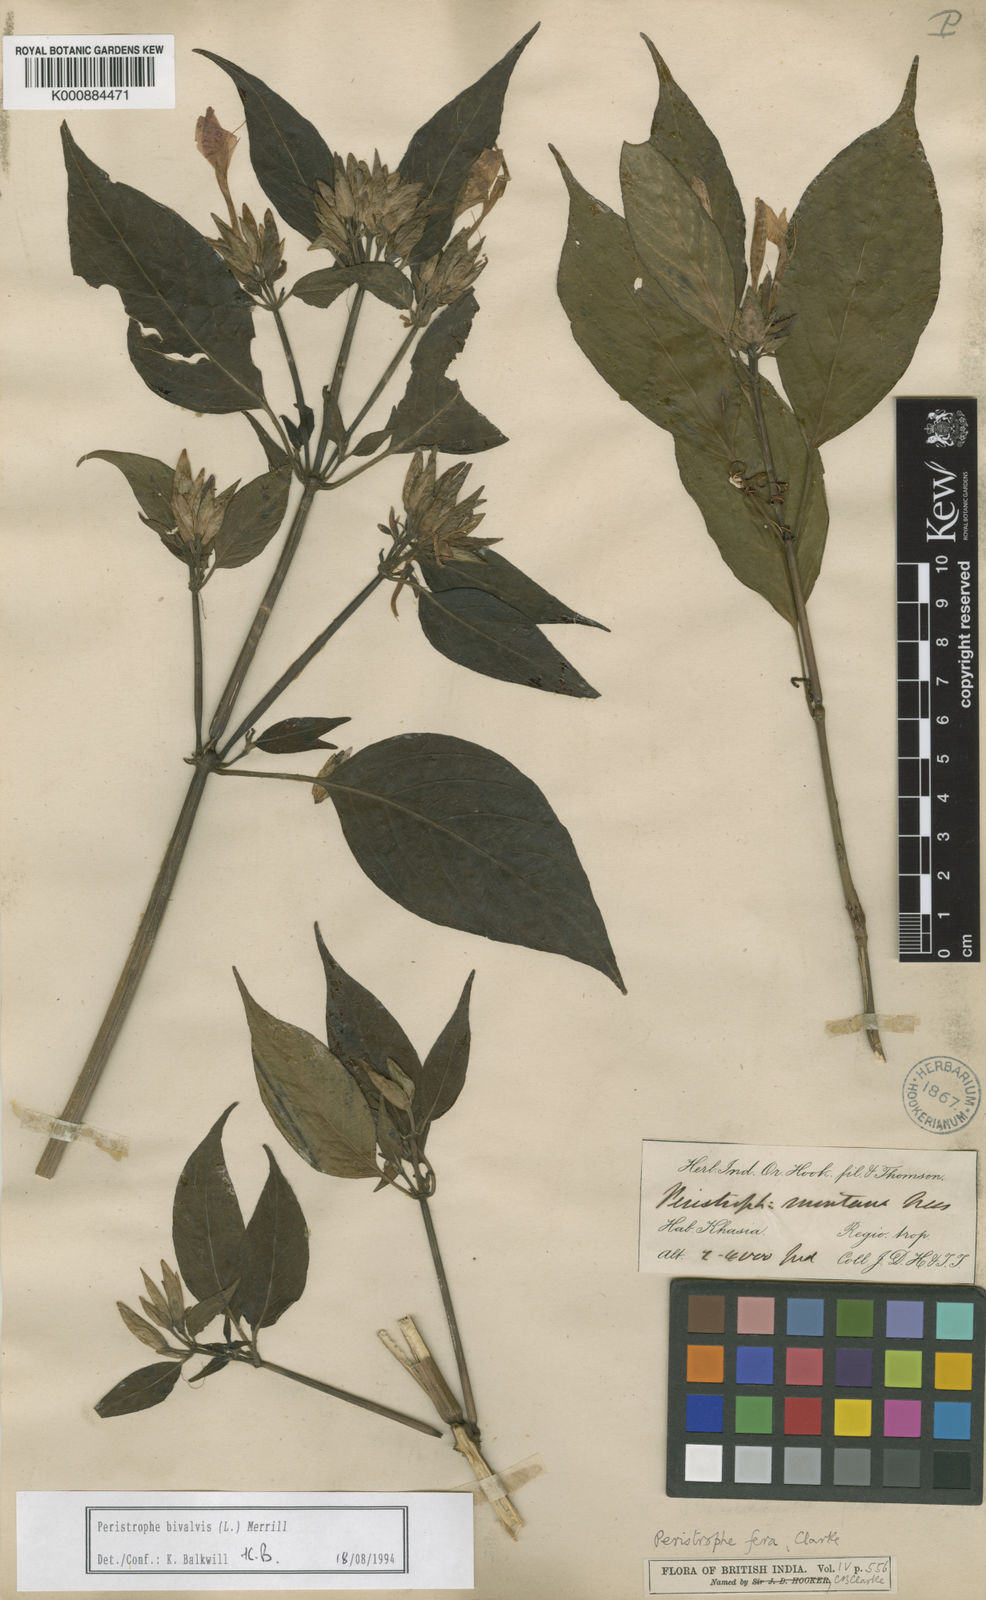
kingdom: Plantae
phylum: Tracheophyta
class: Magnoliopsida
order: Lamiales
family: Acanthaceae
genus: Dicliptera
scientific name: Dicliptera tinctoria
